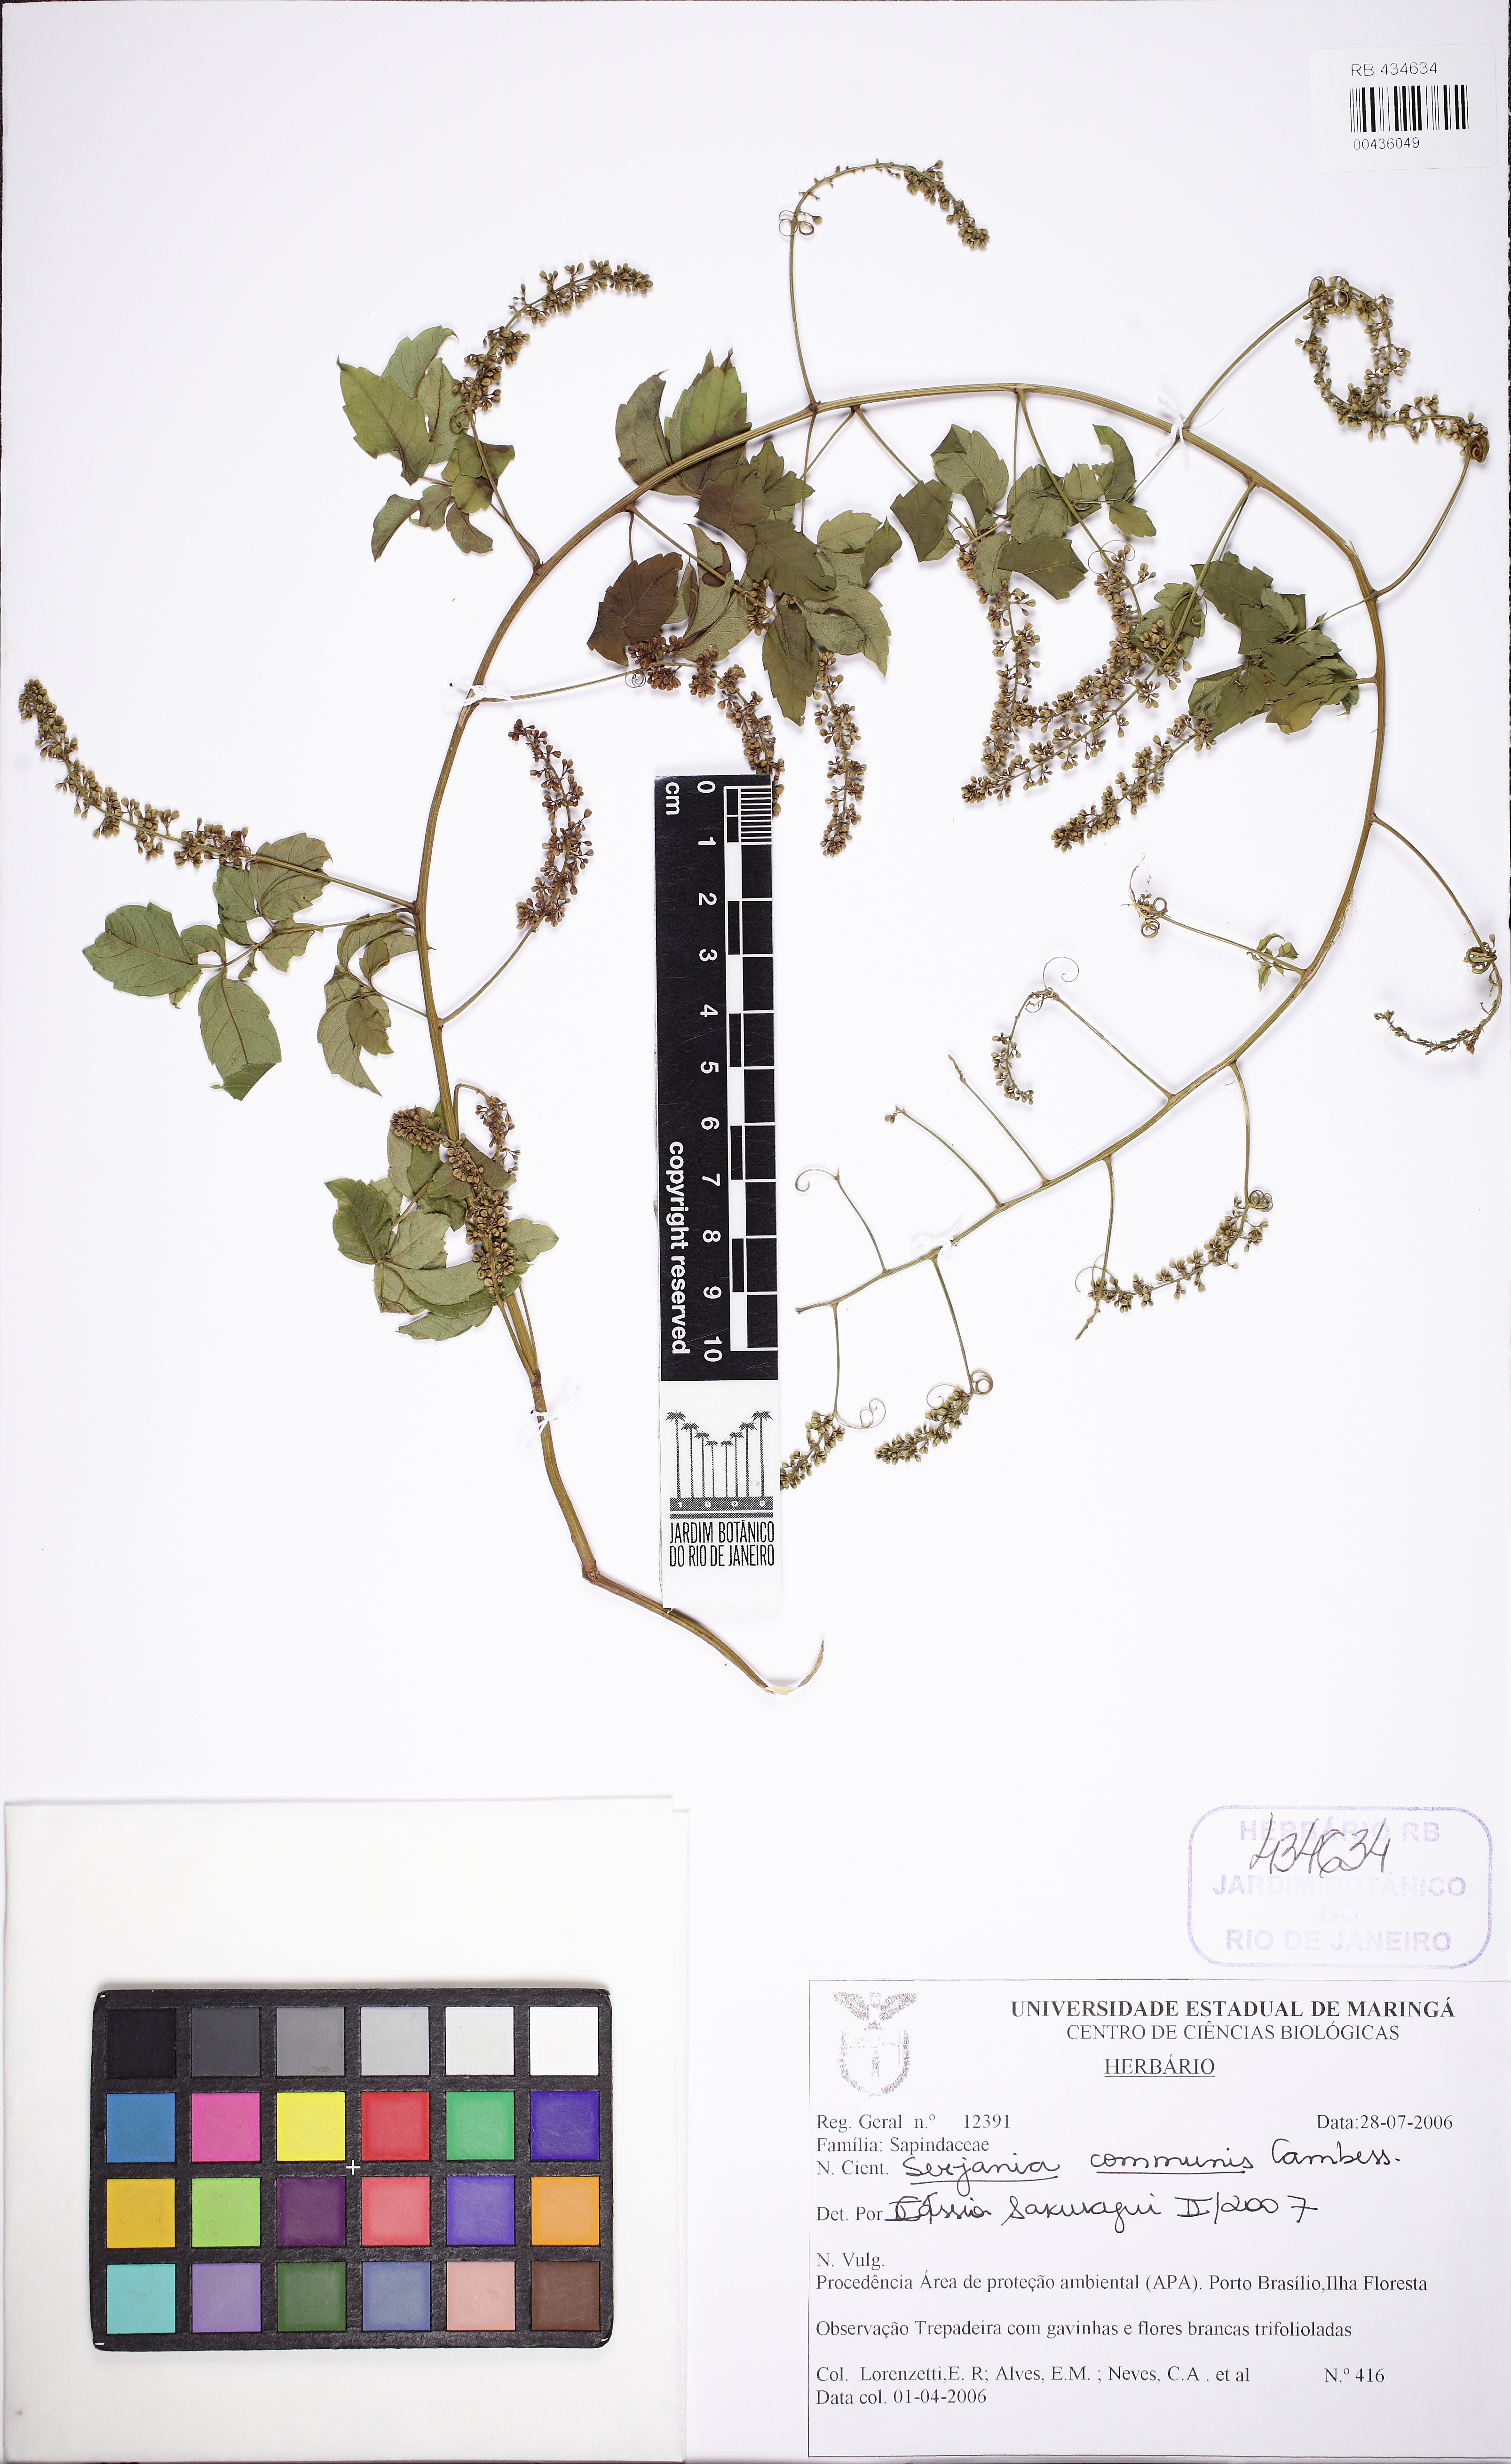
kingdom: Plantae
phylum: Tracheophyta
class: Magnoliopsida
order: Sapindales
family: Sapindaceae
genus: Serjania
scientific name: Serjania communis
